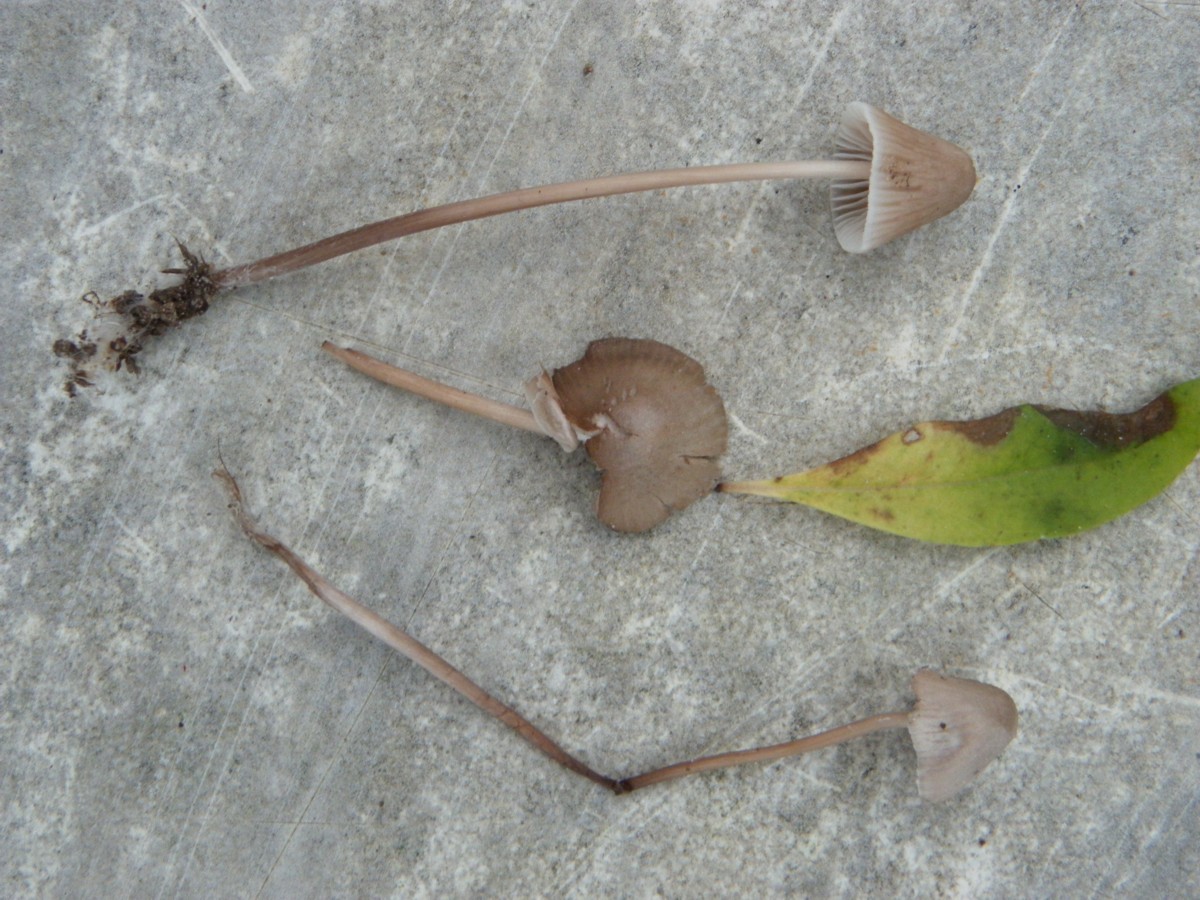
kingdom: Fungi
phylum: Basidiomycota
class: Agaricomycetes
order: Agaricales
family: Mycenaceae
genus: Mycena
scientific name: Mycena aetites
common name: plæne-huesvamp
